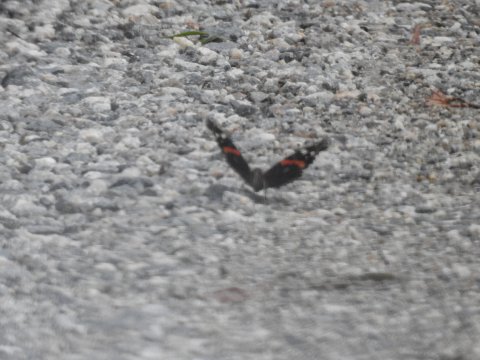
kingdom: Animalia
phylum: Arthropoda
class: Insecta
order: Lepidoptera
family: Nymphalidae
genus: Vanessa
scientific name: Vanessa atalanta
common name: Red Admiral
